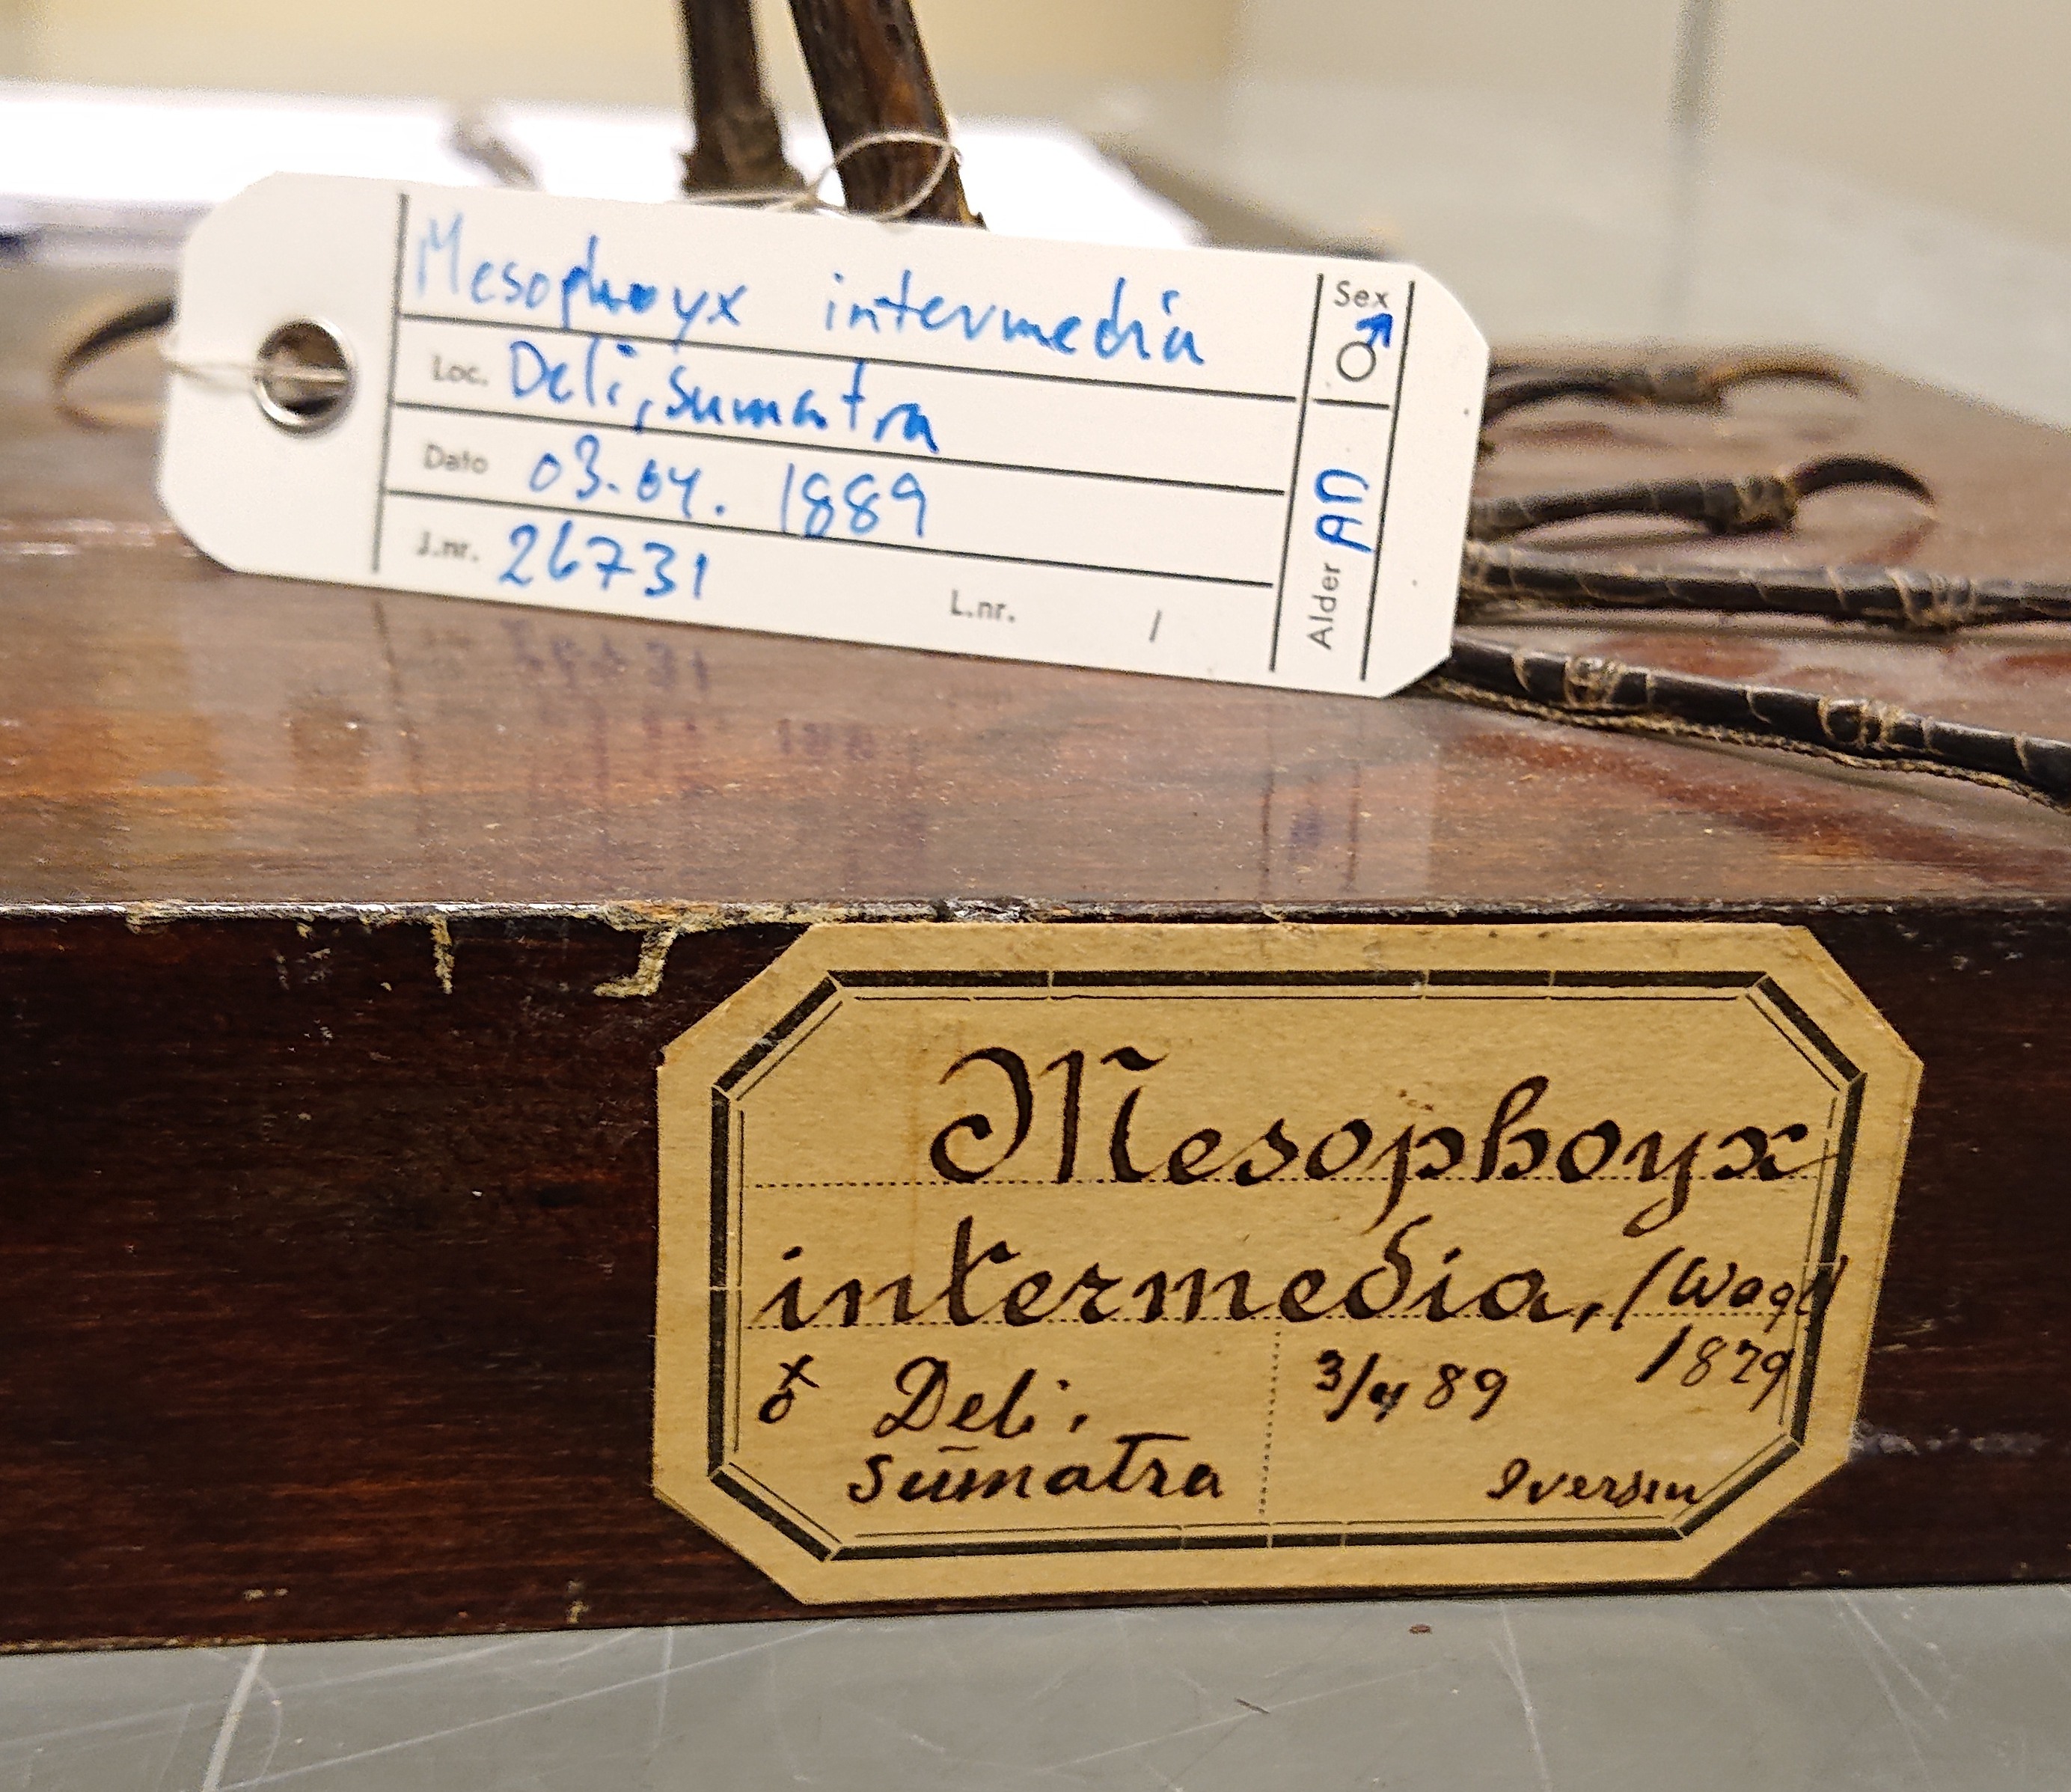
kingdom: Animalia
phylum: Chordata
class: Aves
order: Pelecaniformes
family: Ardeidae
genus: Egretta
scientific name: Egretta intermedia
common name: Intermediate egret
